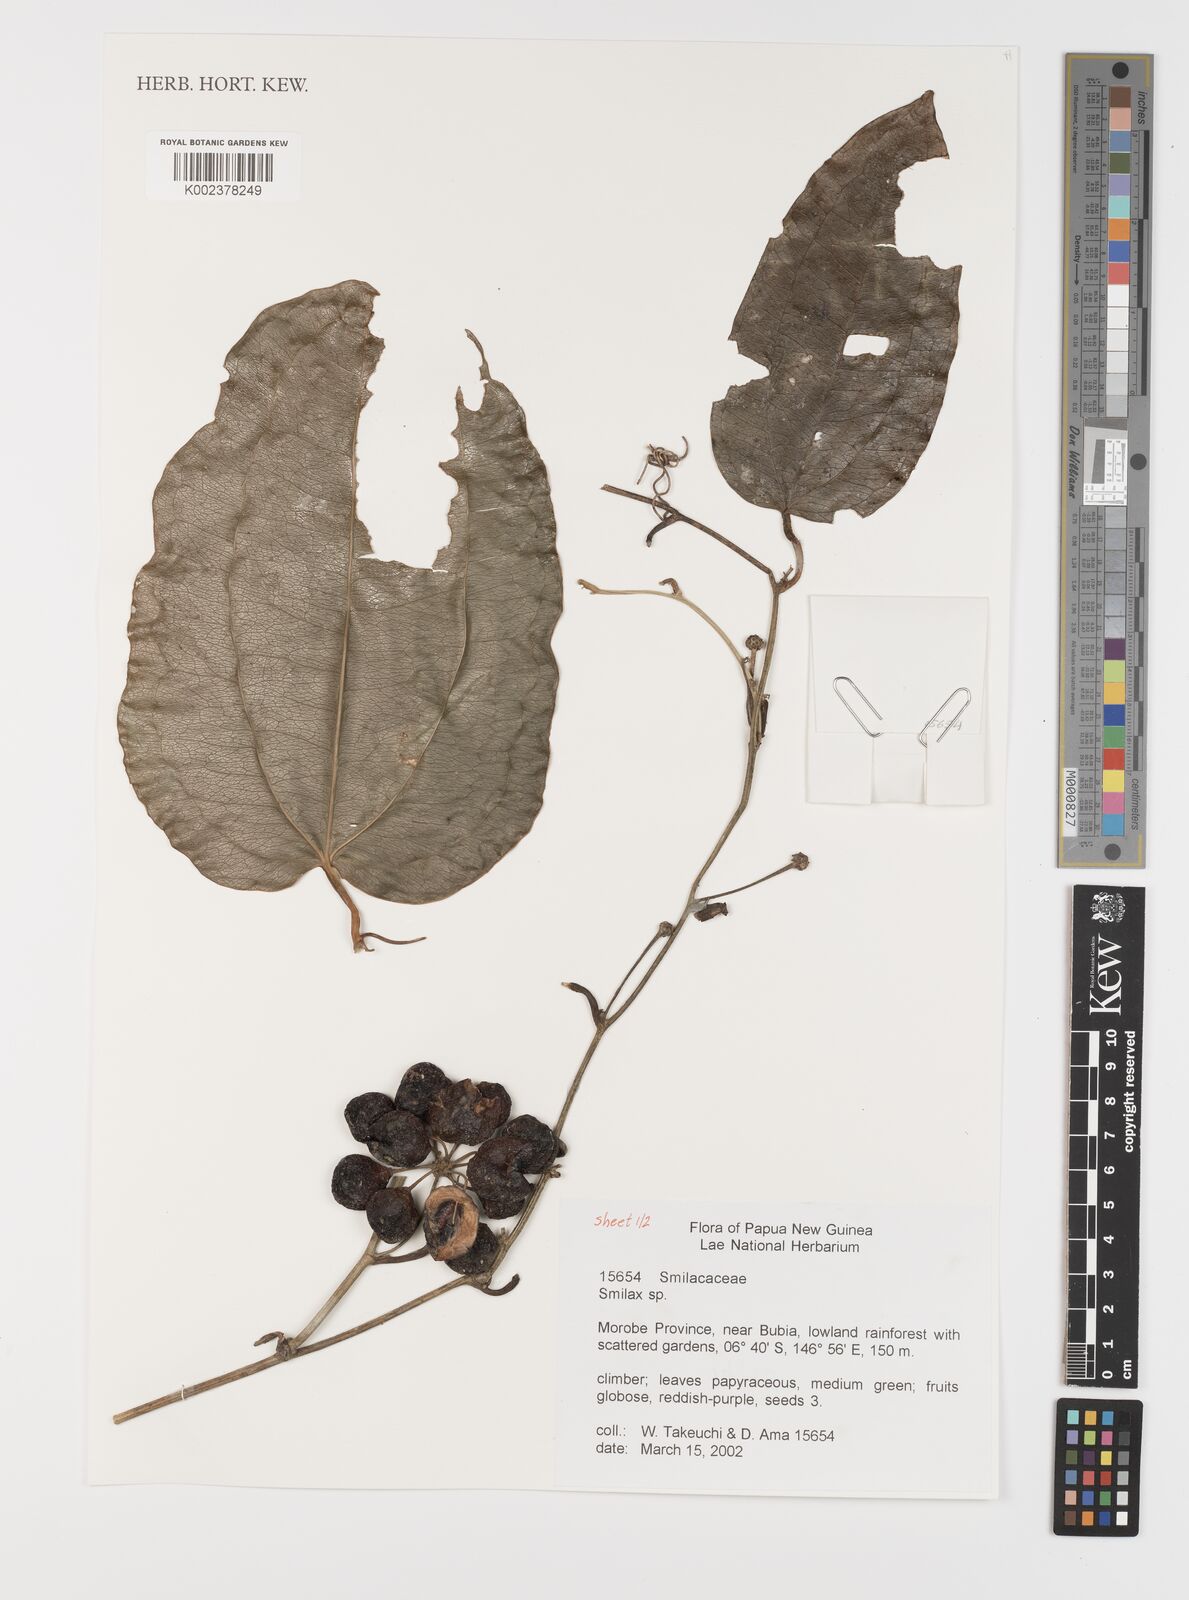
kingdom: Plantae
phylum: Tracheophyta
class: Liliopsida
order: Liliales
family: Smilacaceae
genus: Smilax
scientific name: Smilax
